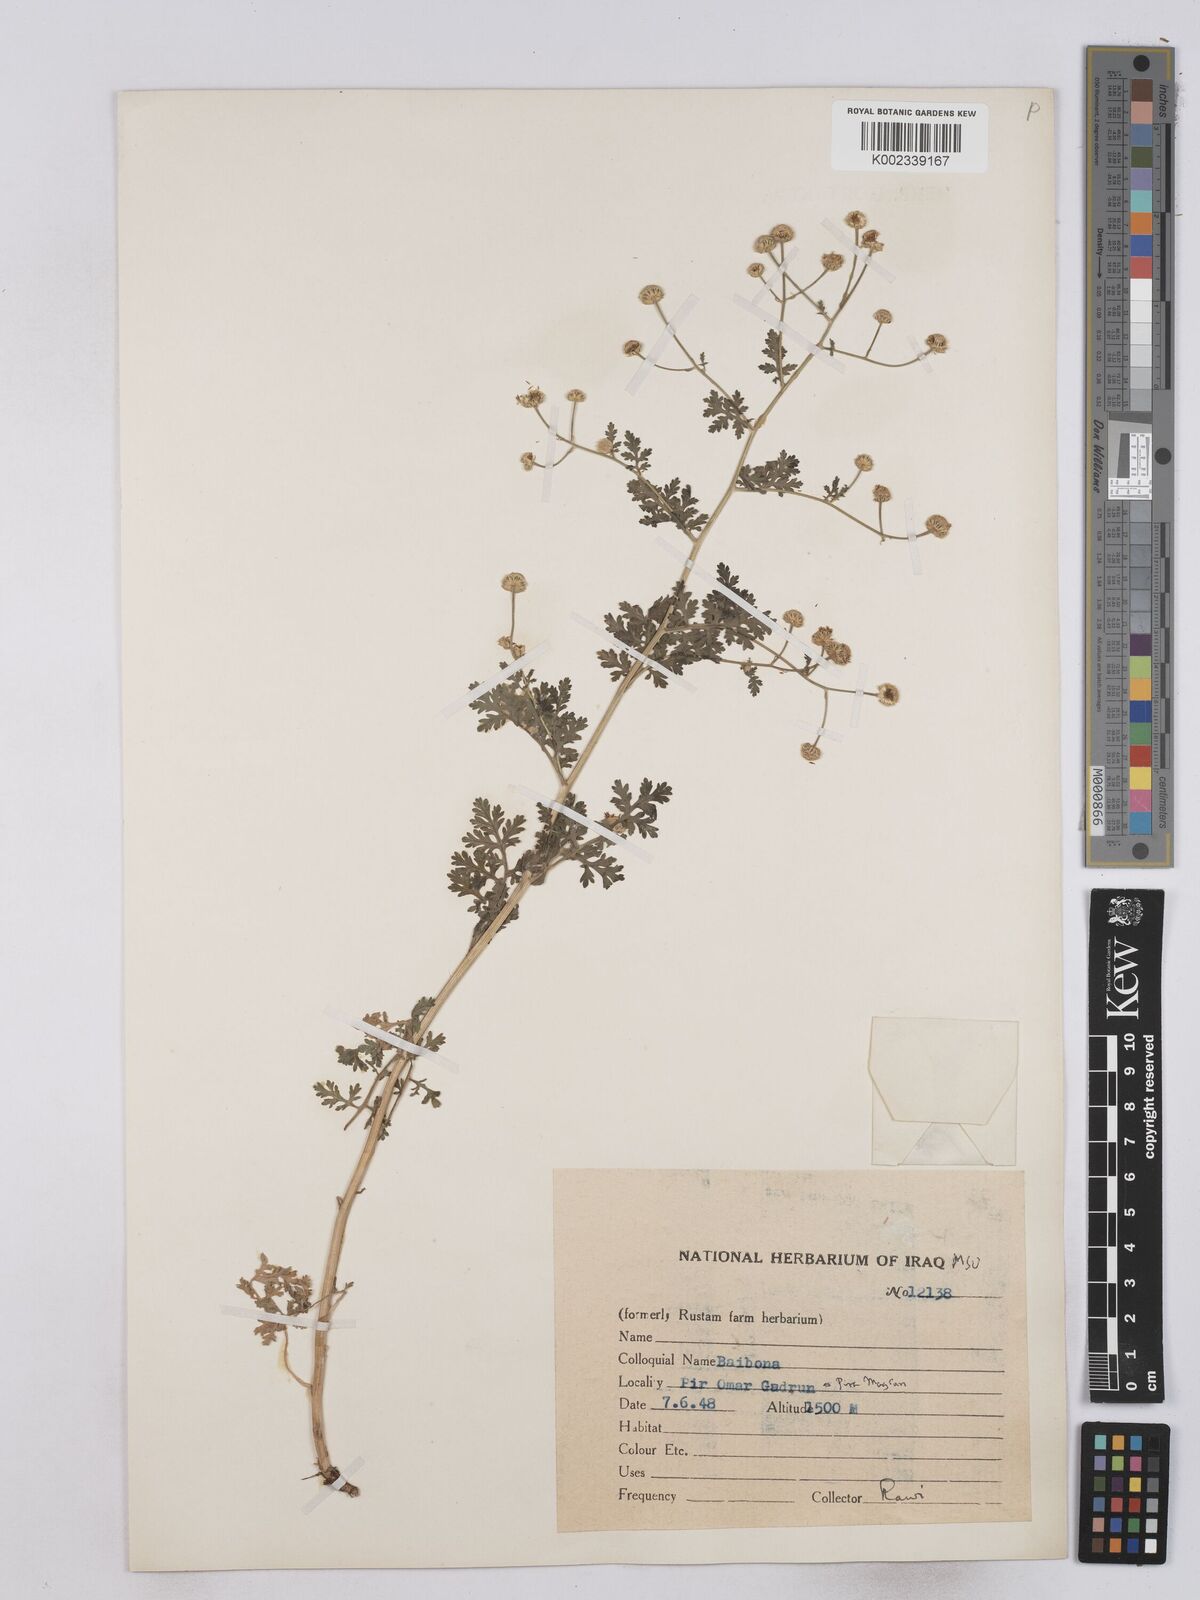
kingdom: Plantae
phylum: Tracheophyta
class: Magnoliopsida
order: Asterales
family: Asteraceae
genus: Tanacetum
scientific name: Tanacetum partheniifolium
